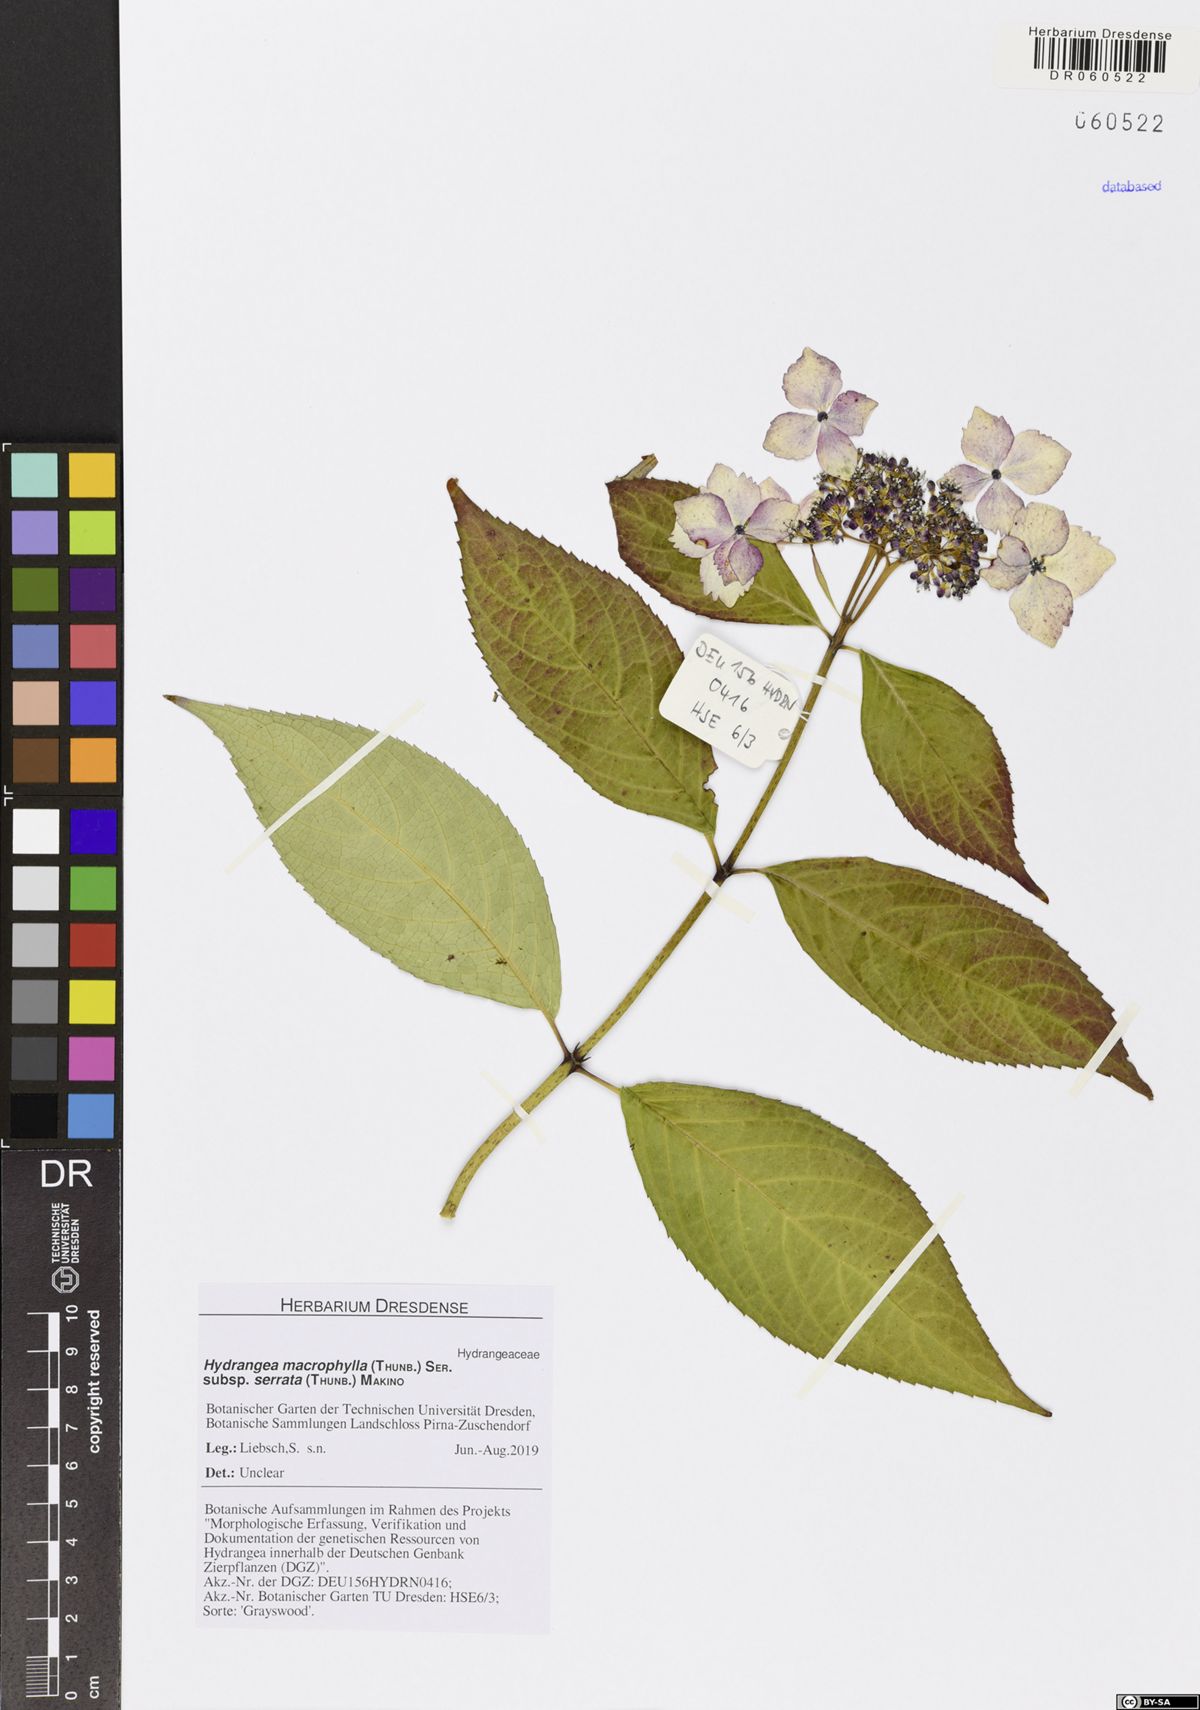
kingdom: Plantae
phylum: Tracheophyta
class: Magnoliopsida
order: Cornales
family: Hydrangeaceae
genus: Hydrangea
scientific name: Hydrangea serrata
